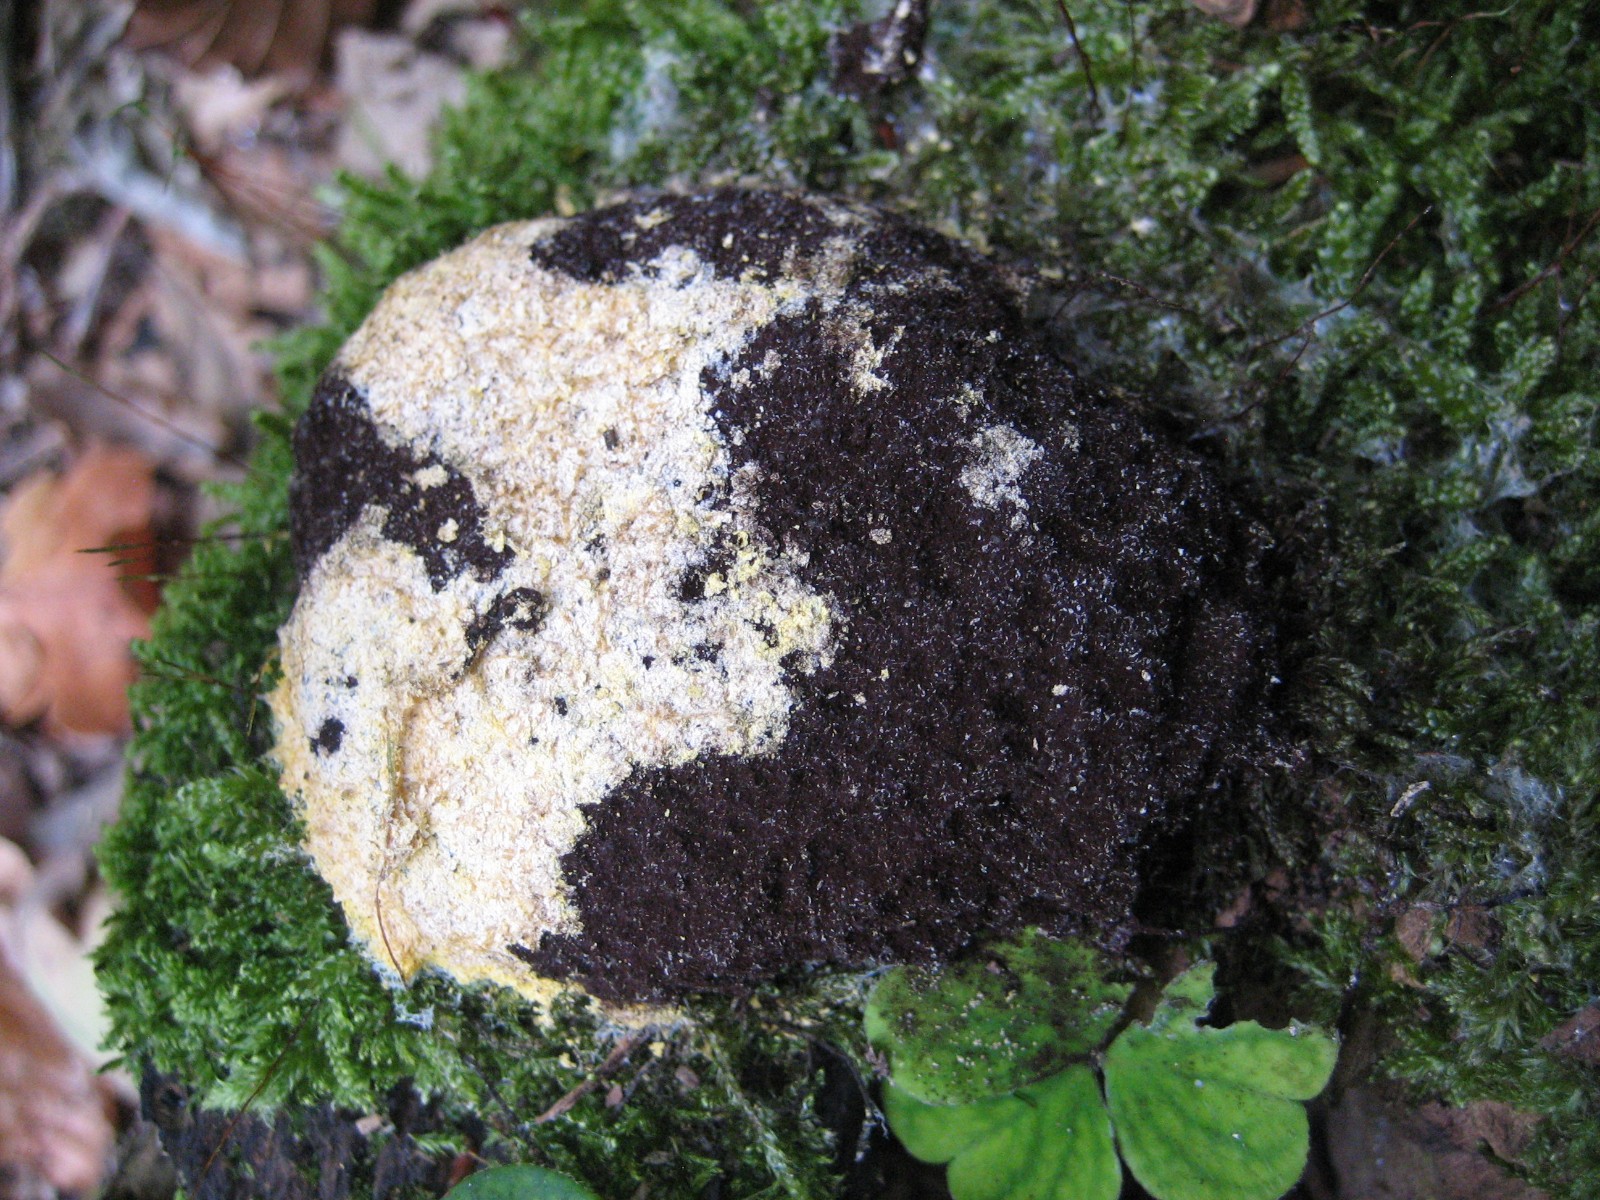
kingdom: Protozoa
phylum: Mycetozoa
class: Myxomycetes
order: Physarales
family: Physaraceae
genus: Fuligo
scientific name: Fuligo
